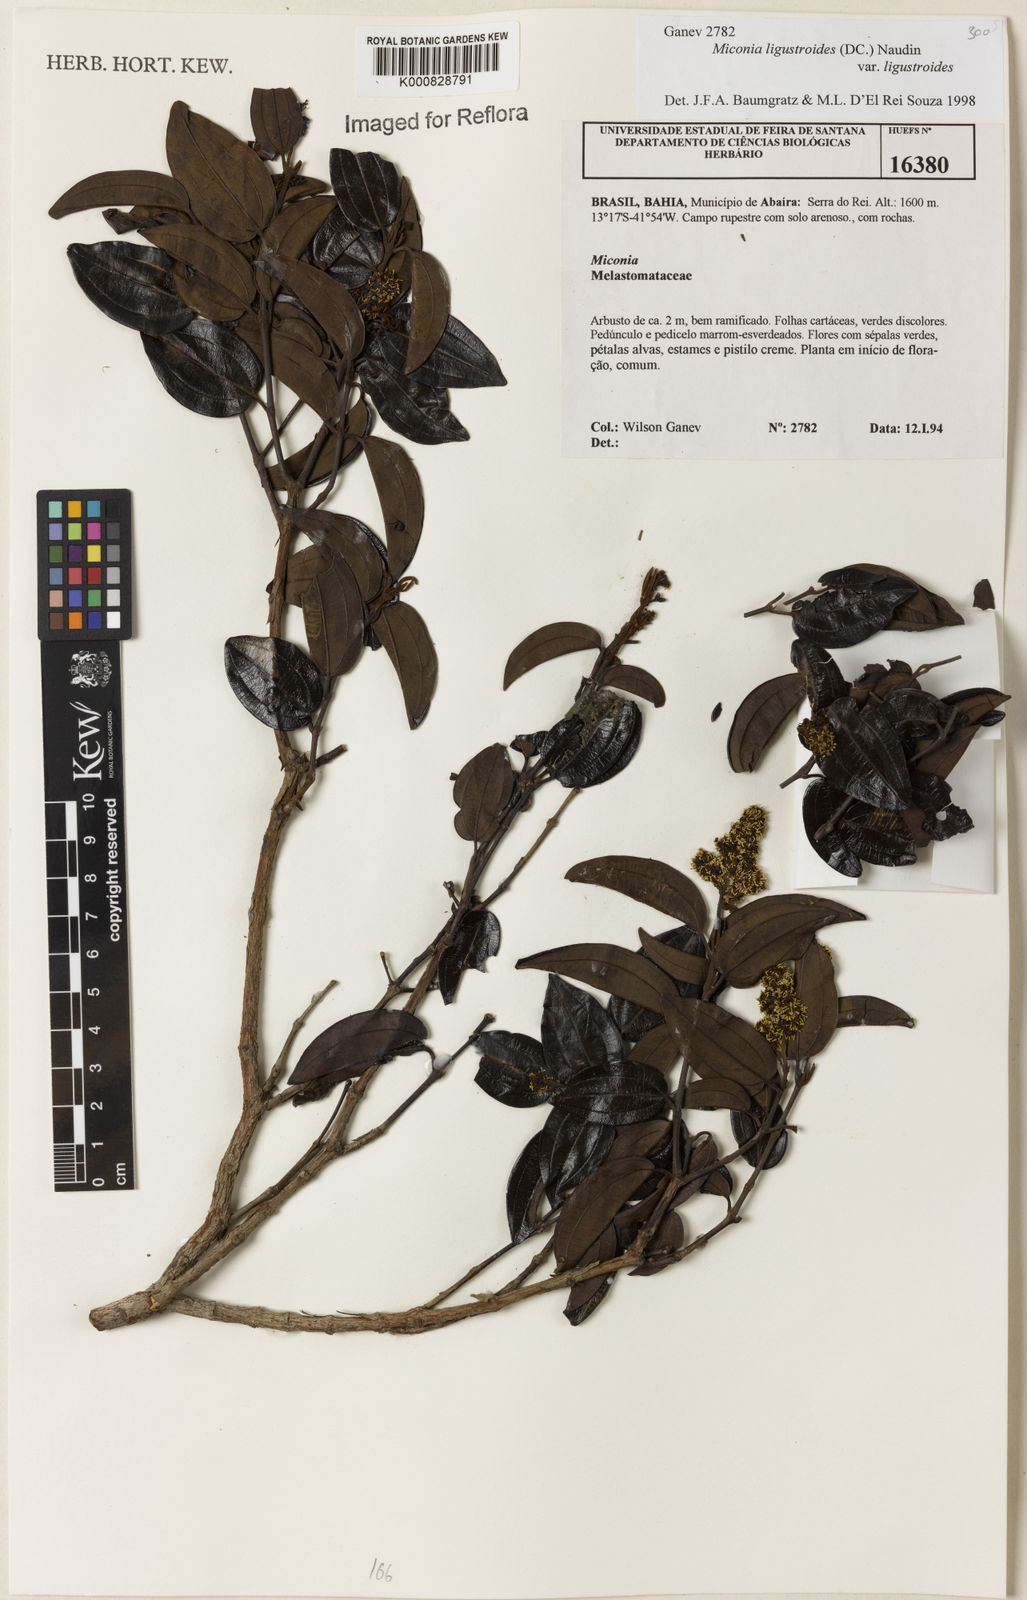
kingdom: Plantae
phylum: Tracheophyta
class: Magnoliopsida
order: Myrtales
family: Melastomataceae
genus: Miconia
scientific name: Miconia ligustroides
